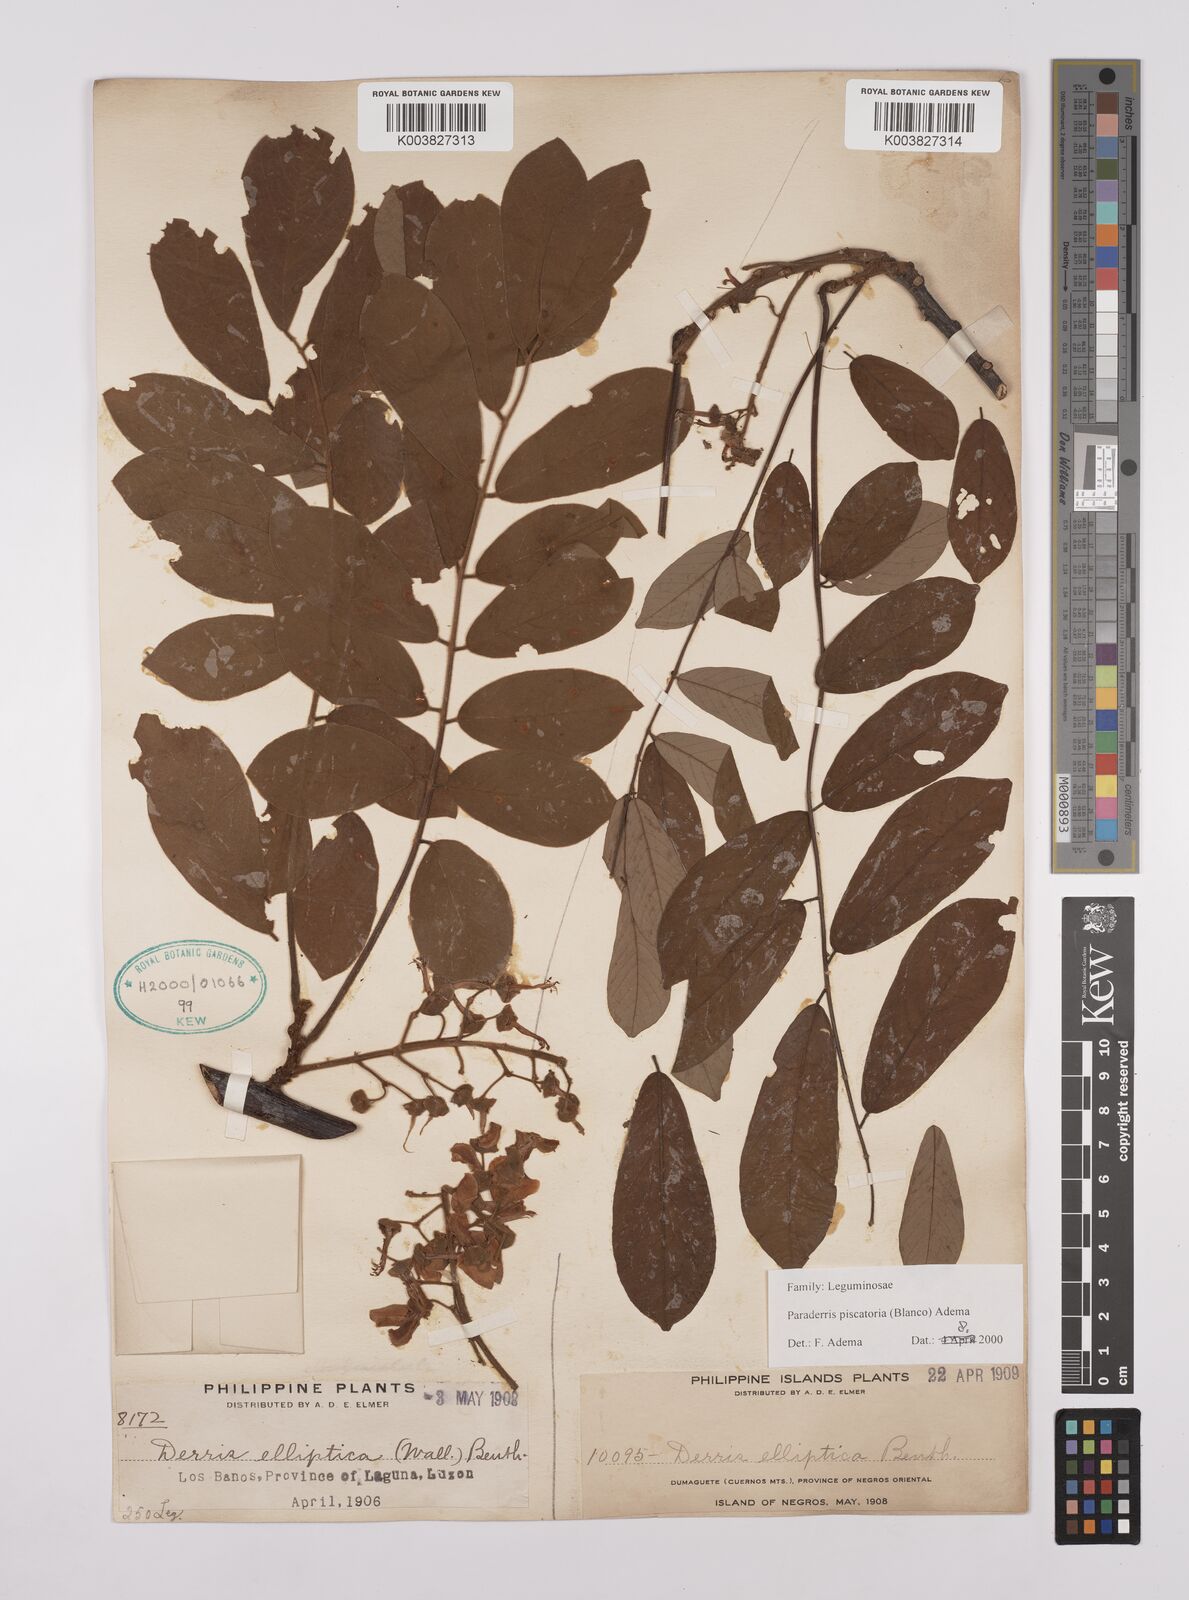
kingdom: Plantae
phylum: Tracheophyta
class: Magnoliopsida
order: Fabales
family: Fabaceae
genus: Derris
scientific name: Derris piscatoria
